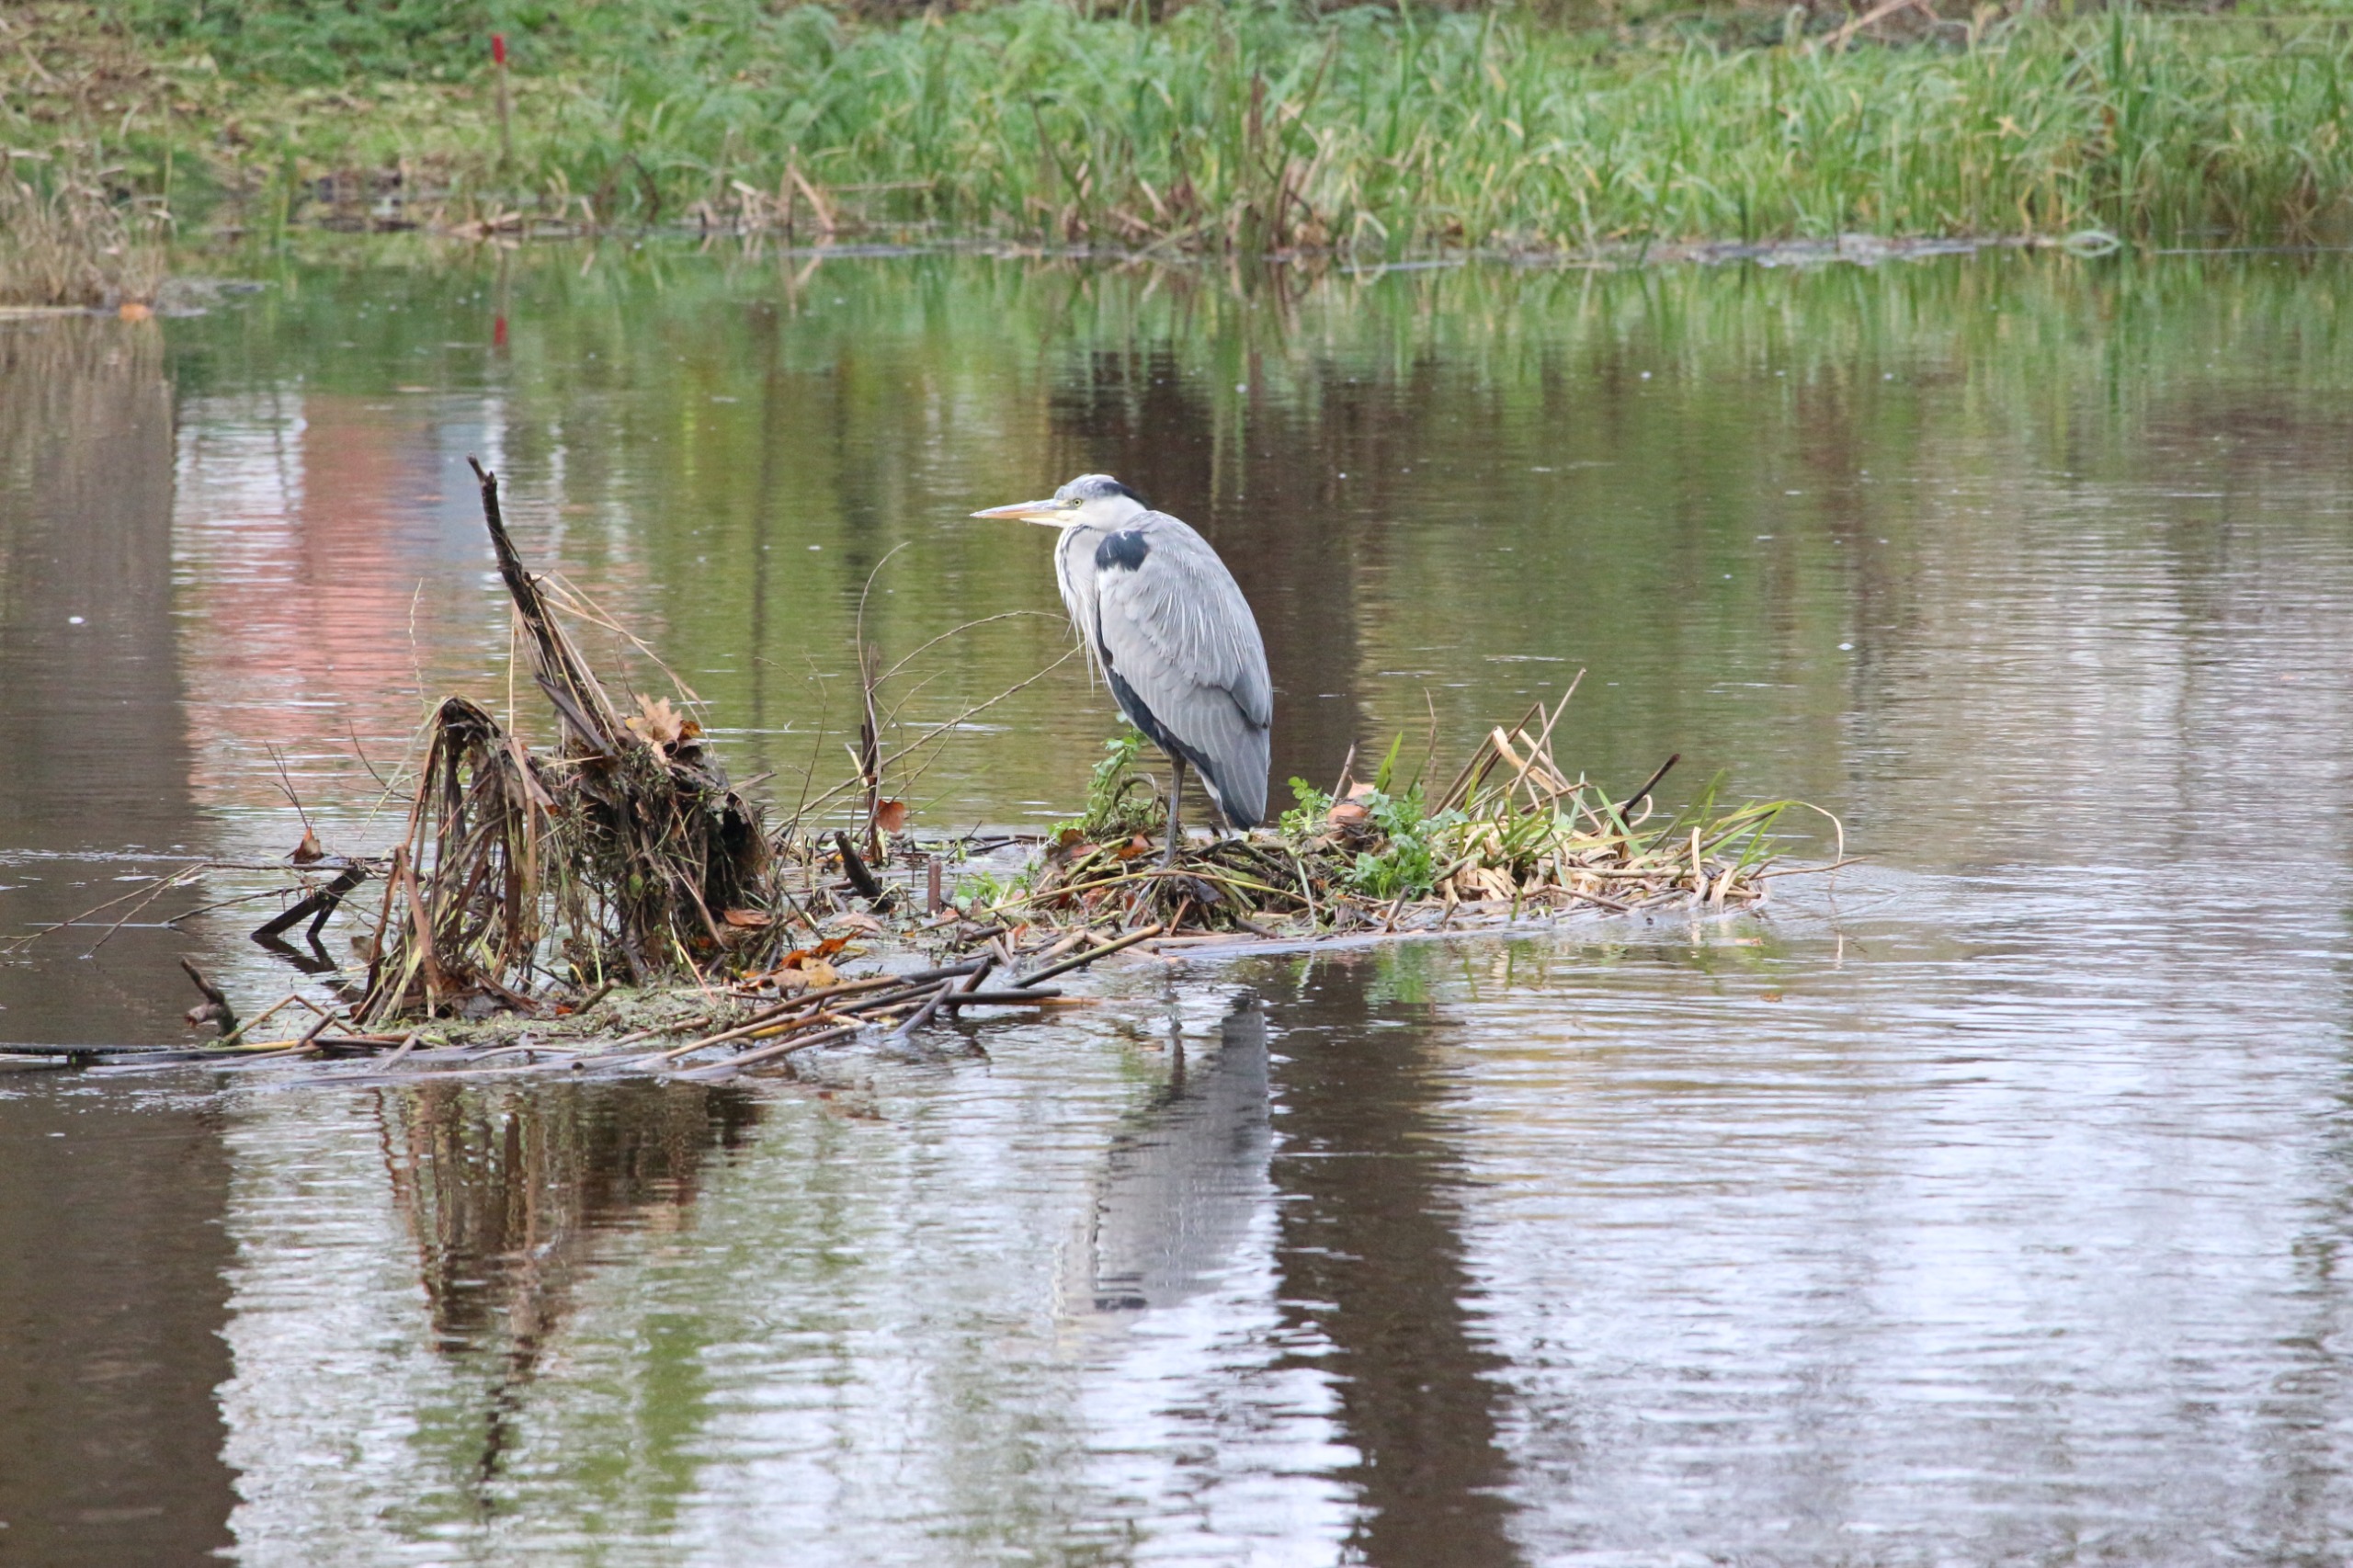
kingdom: Animalia
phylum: Chordata
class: Aves
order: Pelecaniformes
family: Ardeidae
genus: Ardea
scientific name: Ardea cinerea
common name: Fiskehejre
